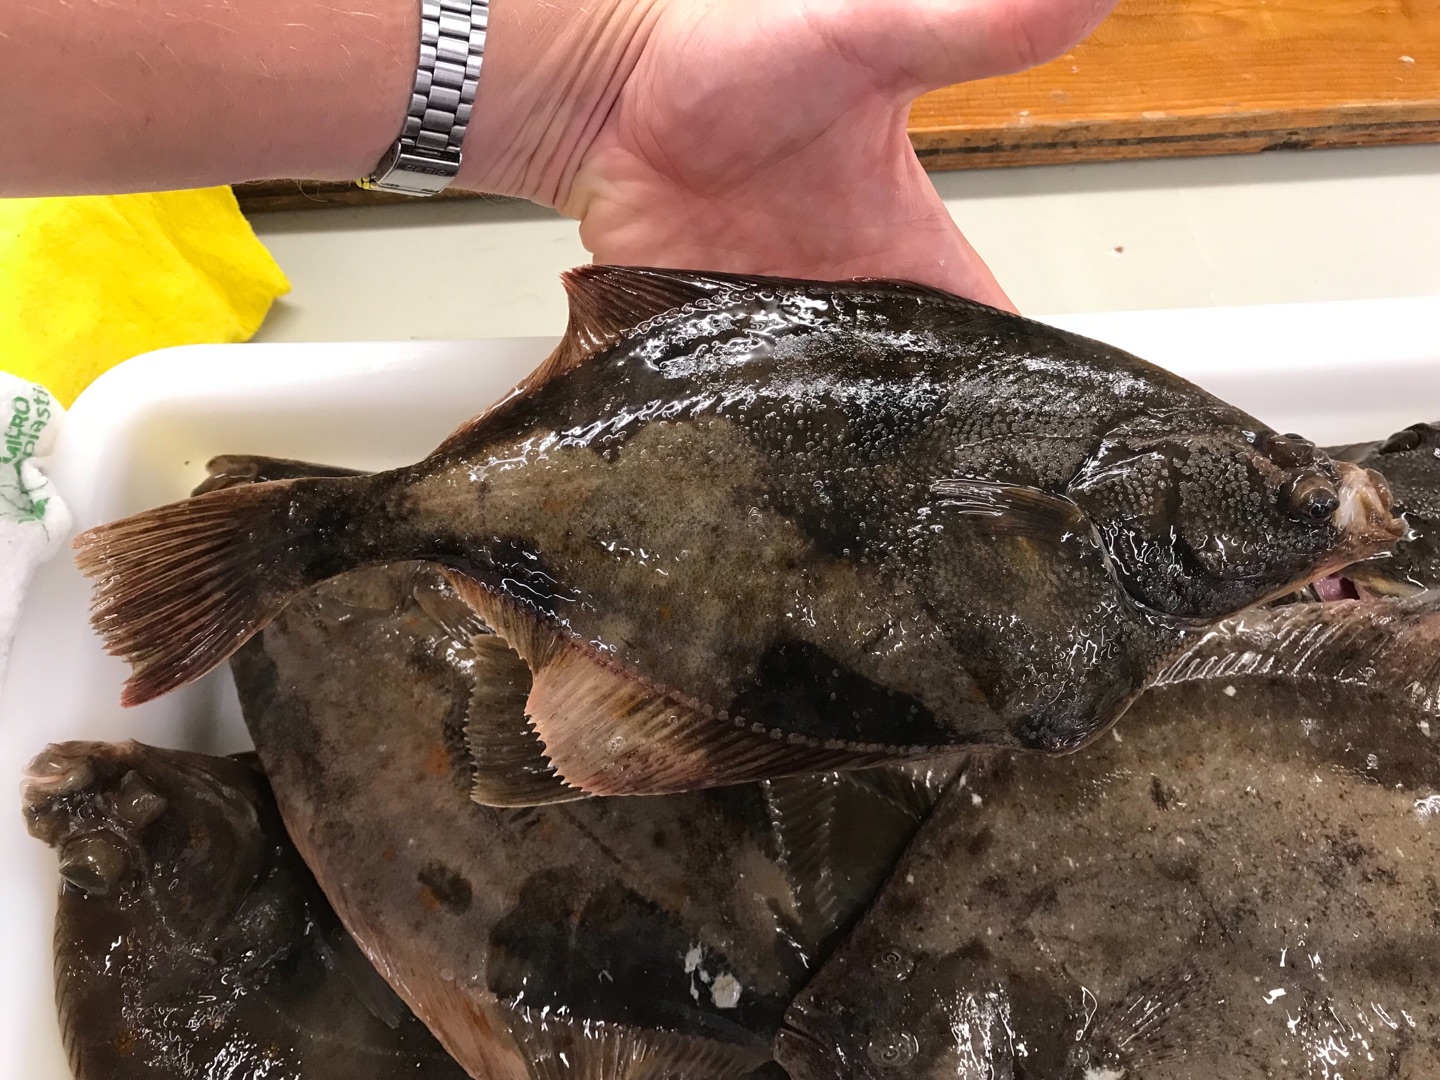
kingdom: Animalia
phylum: Chordata
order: Pleuronectiformes
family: Pleuronectidae
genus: Platichthys
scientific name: Platichthys flesus
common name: Skrubbe
